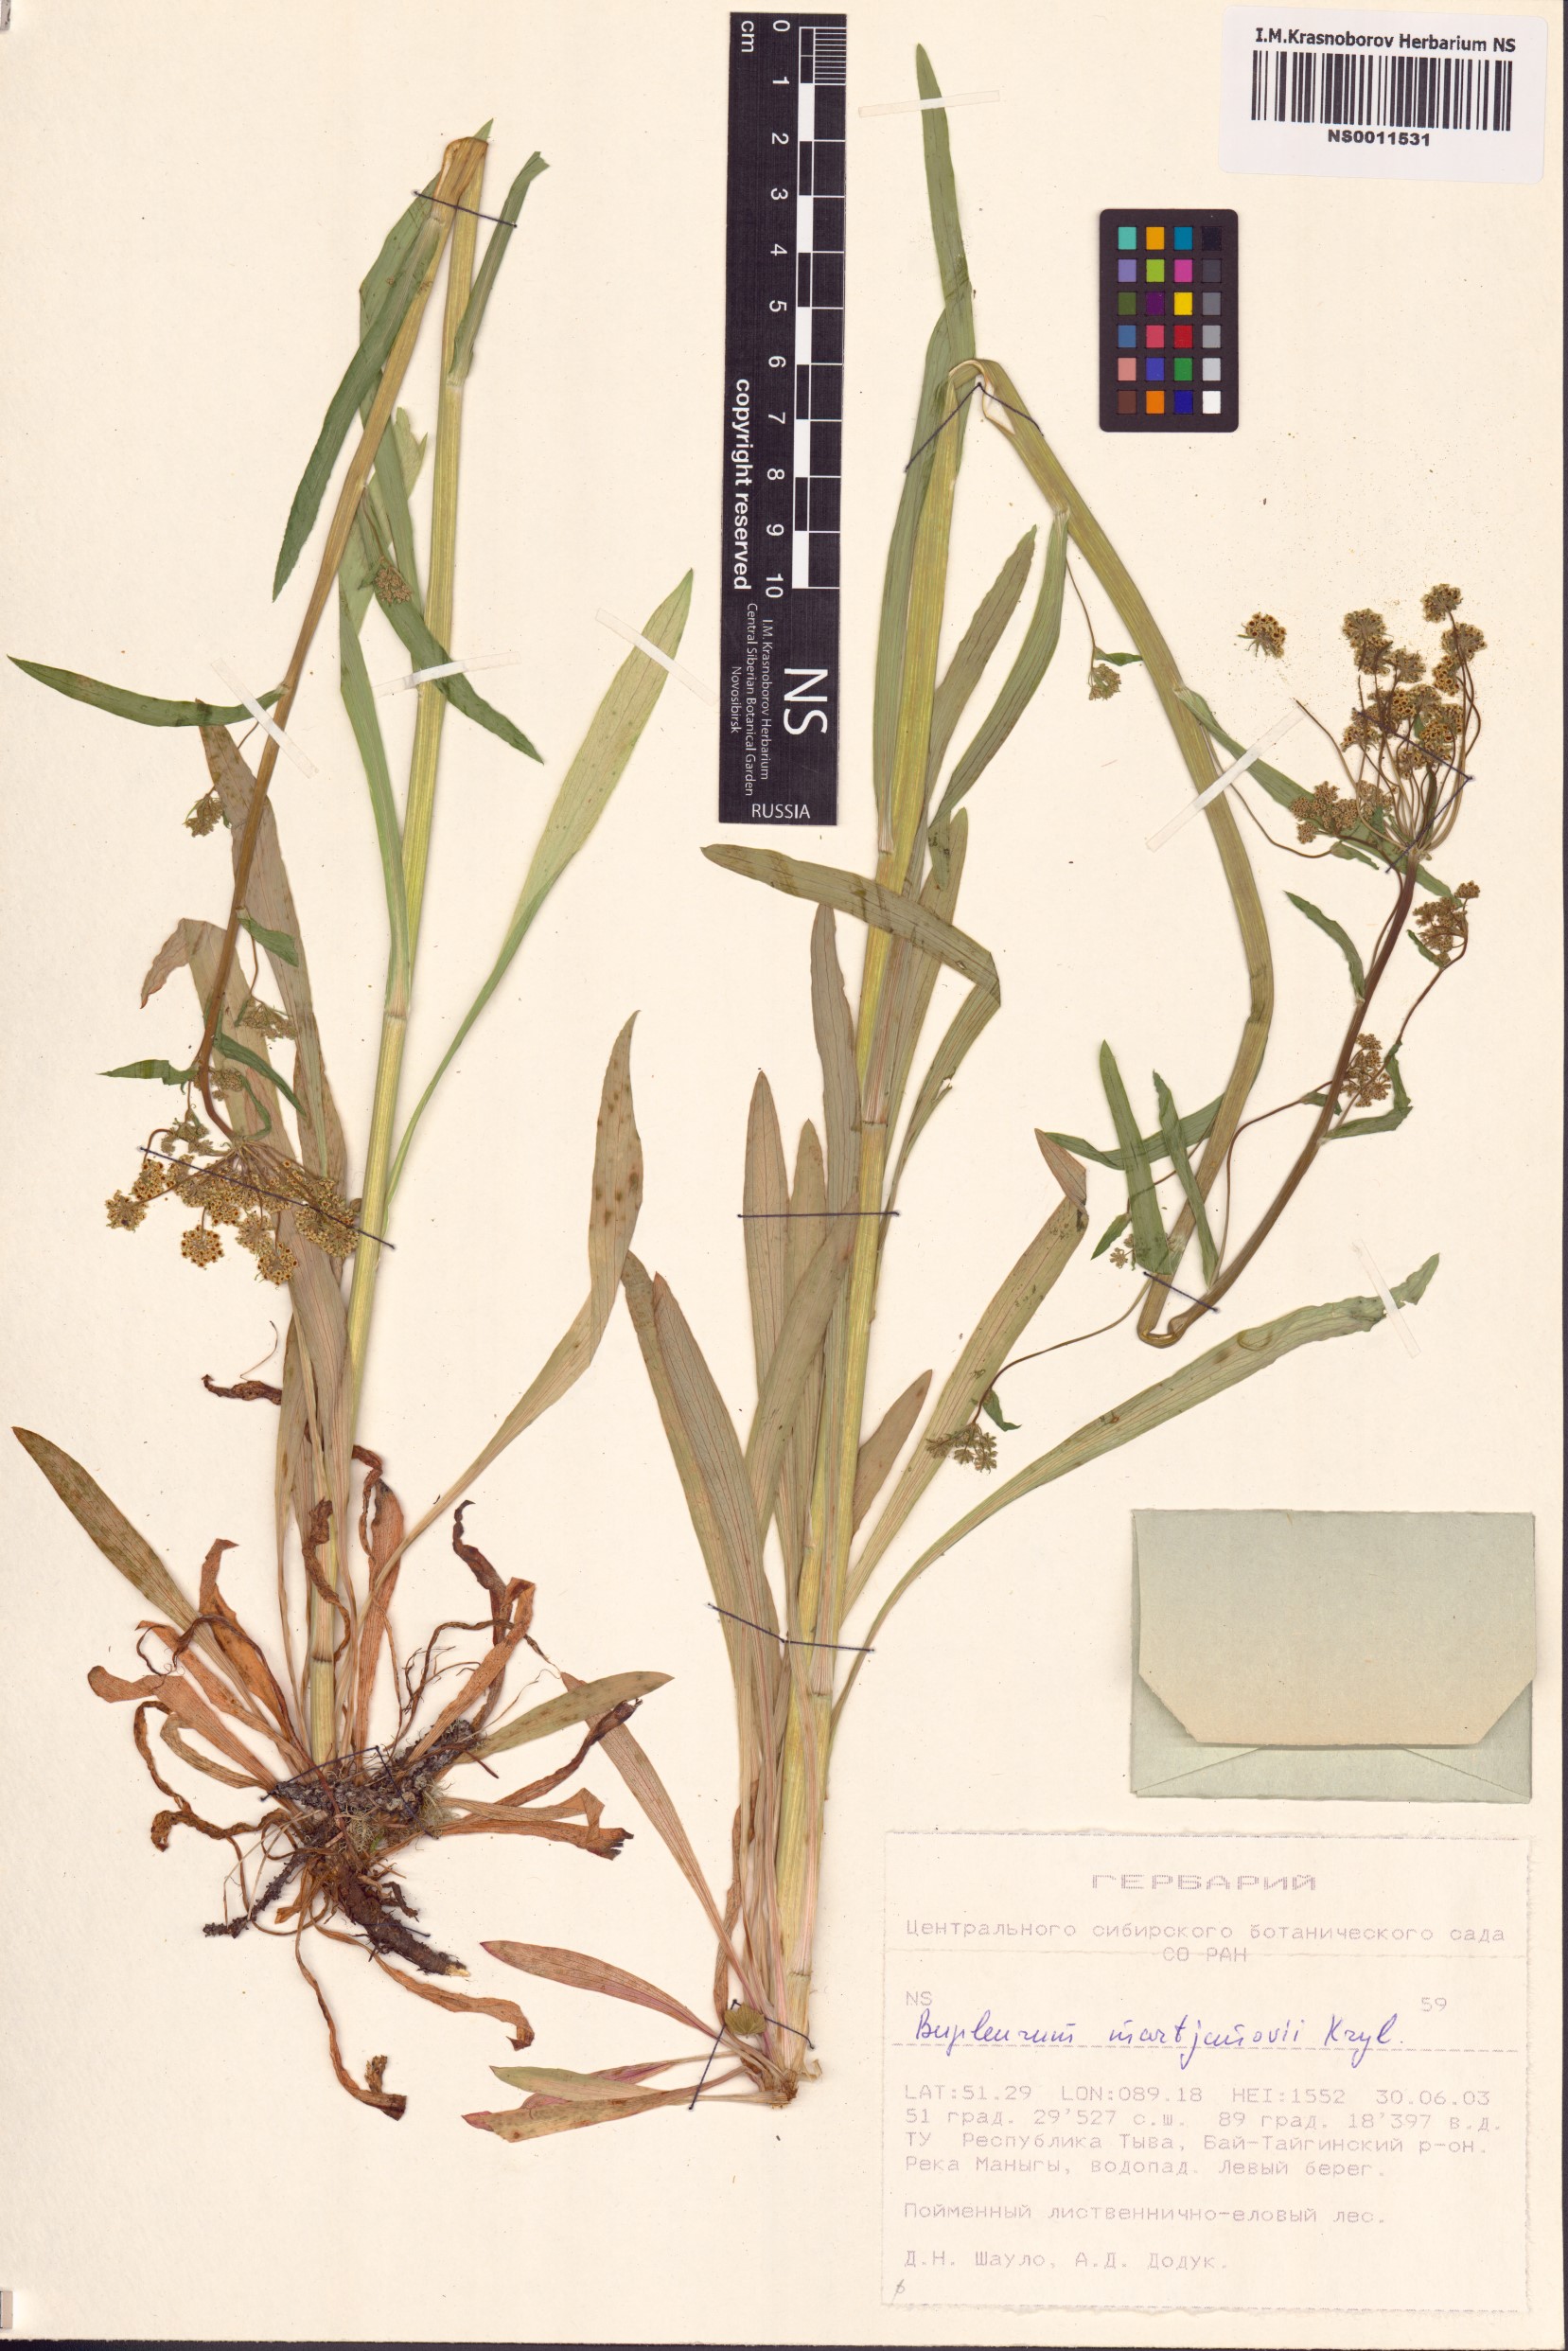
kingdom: Plantae
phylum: Tracheophyta
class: Magnoliopsida
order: Apiales
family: Apiaceae
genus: Bupleurum
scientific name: Bupleurum martjanovii
